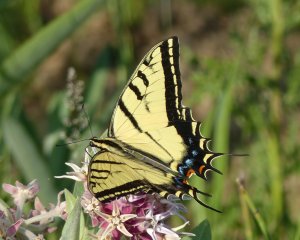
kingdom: Animalia
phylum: Arthropoda
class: Insecta
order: Lepidoptera
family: Papilionidae
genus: Papilio
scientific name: Papilio multicaudata
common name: Two-tailed Swallowtail
